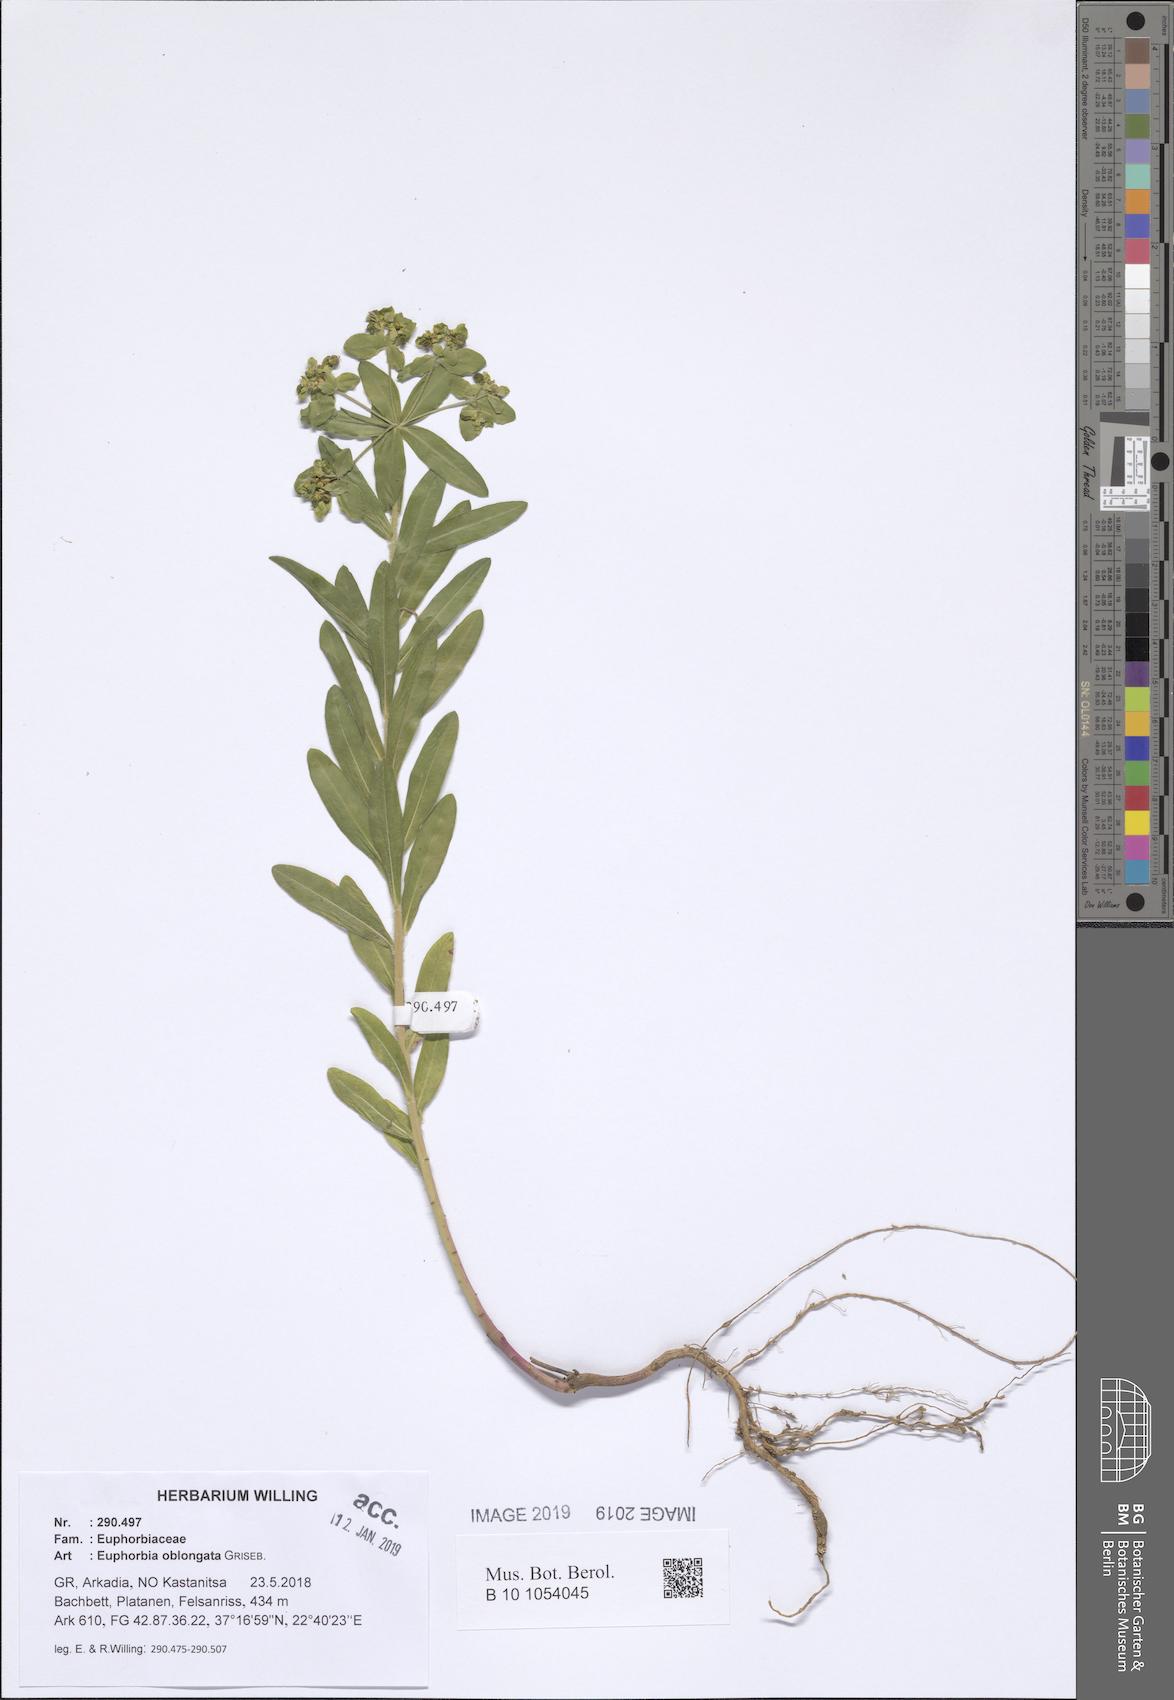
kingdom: Plantae
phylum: Tracheophyta
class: Magnoliopsida
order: Malpighiales
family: Euphorbiaceae
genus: Euphorbia
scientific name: Euphorbia oblongata
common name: Balkan spurge
